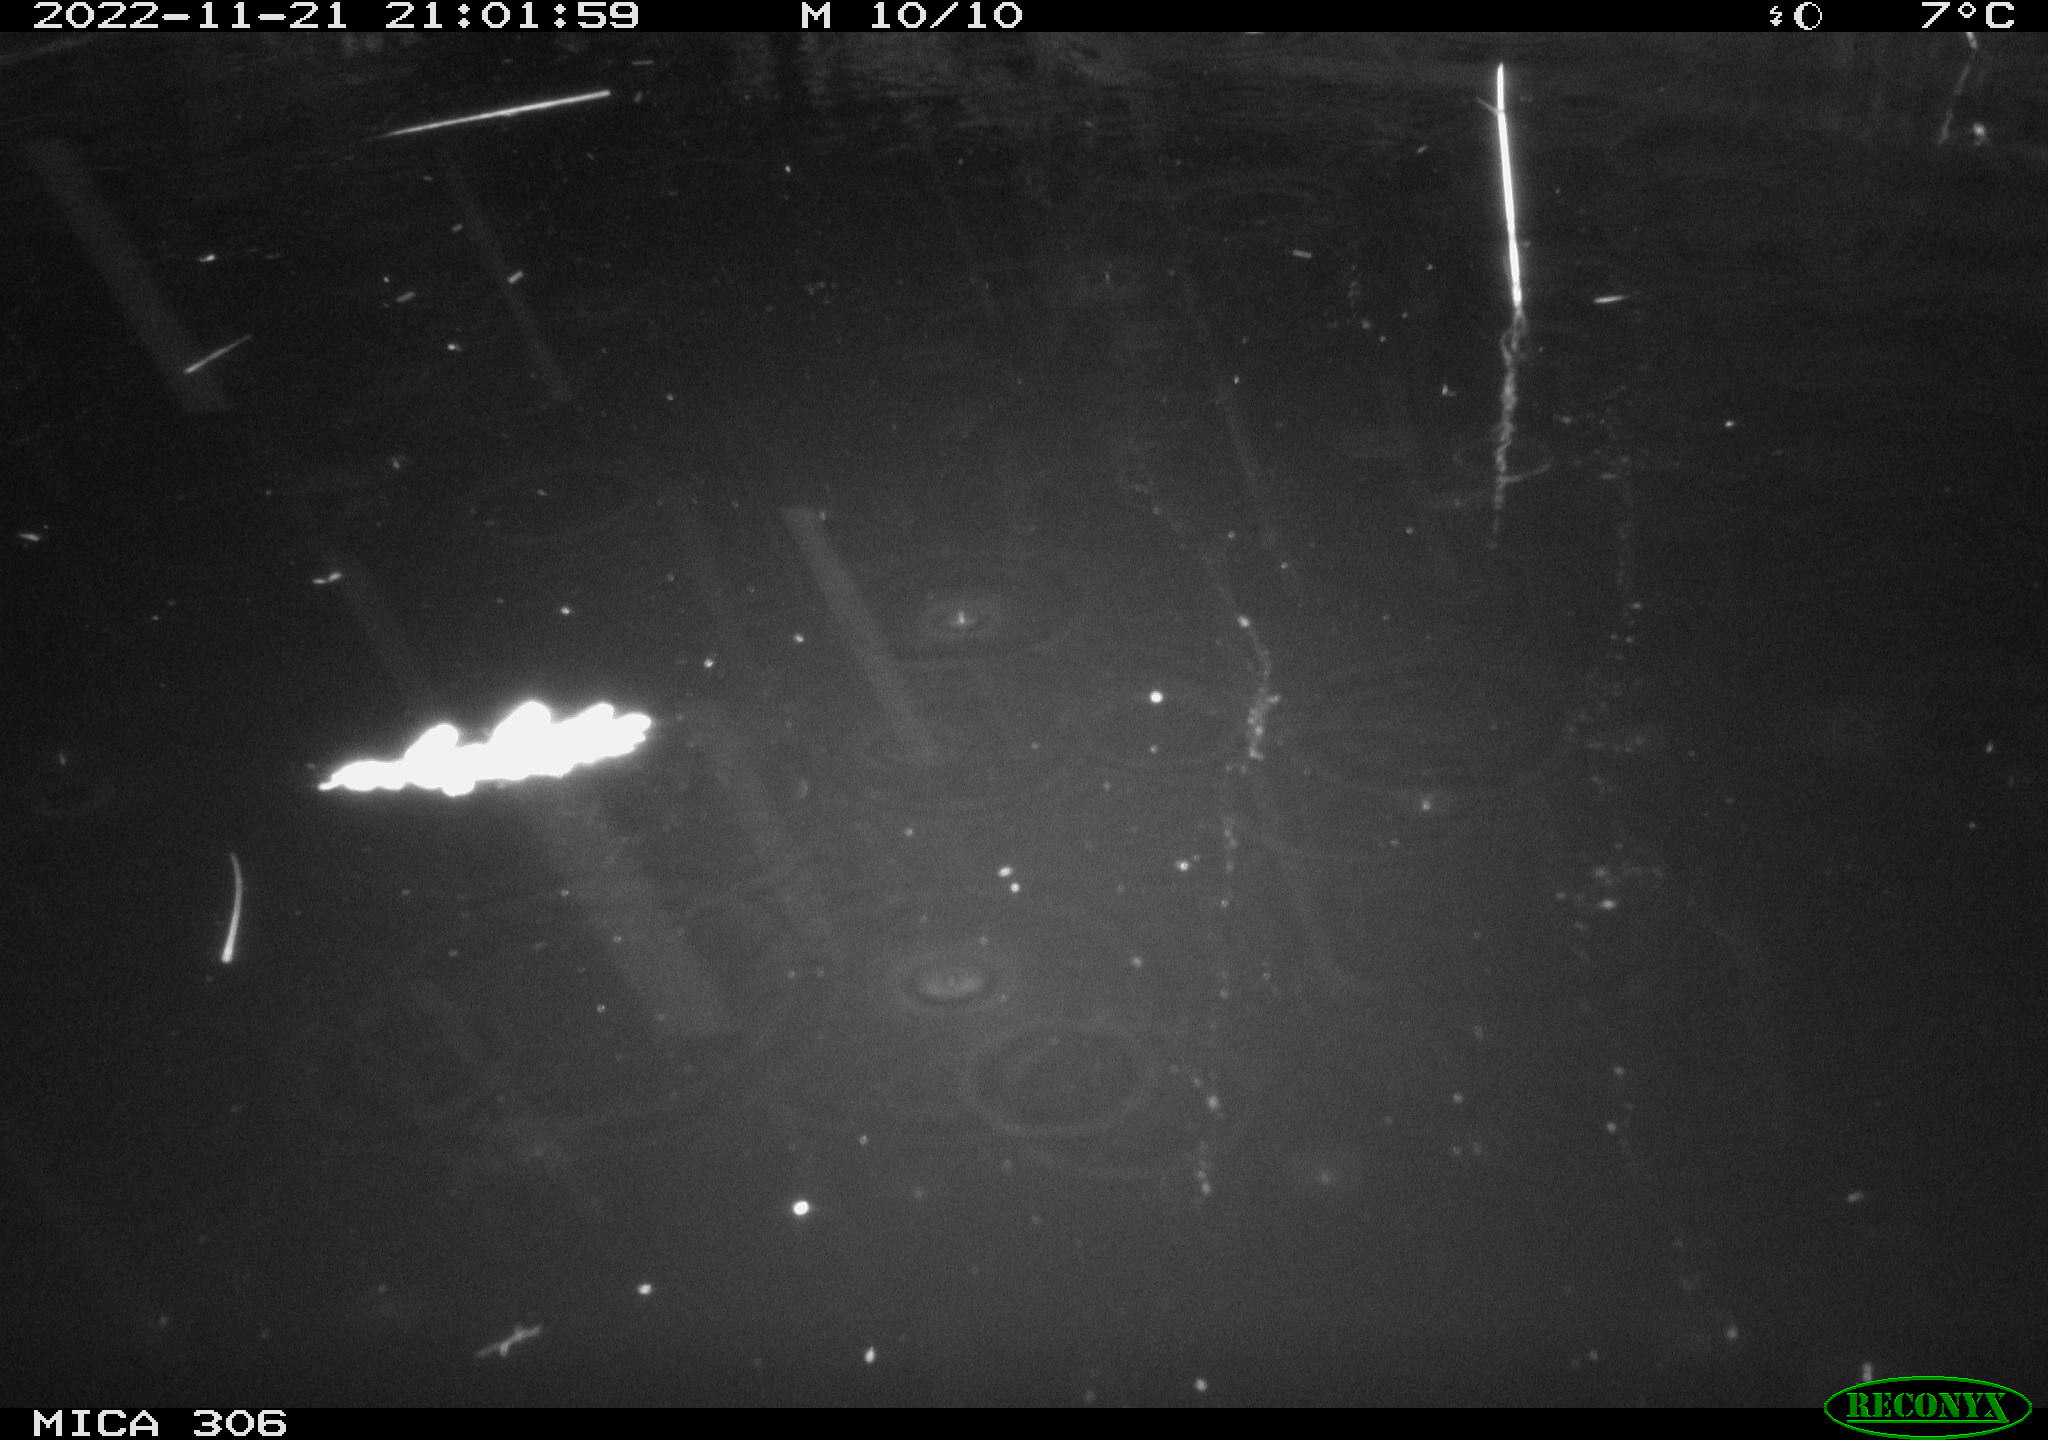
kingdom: Animalia
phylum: Chordata
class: Mammalia
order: Rodentia
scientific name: Rodentia
